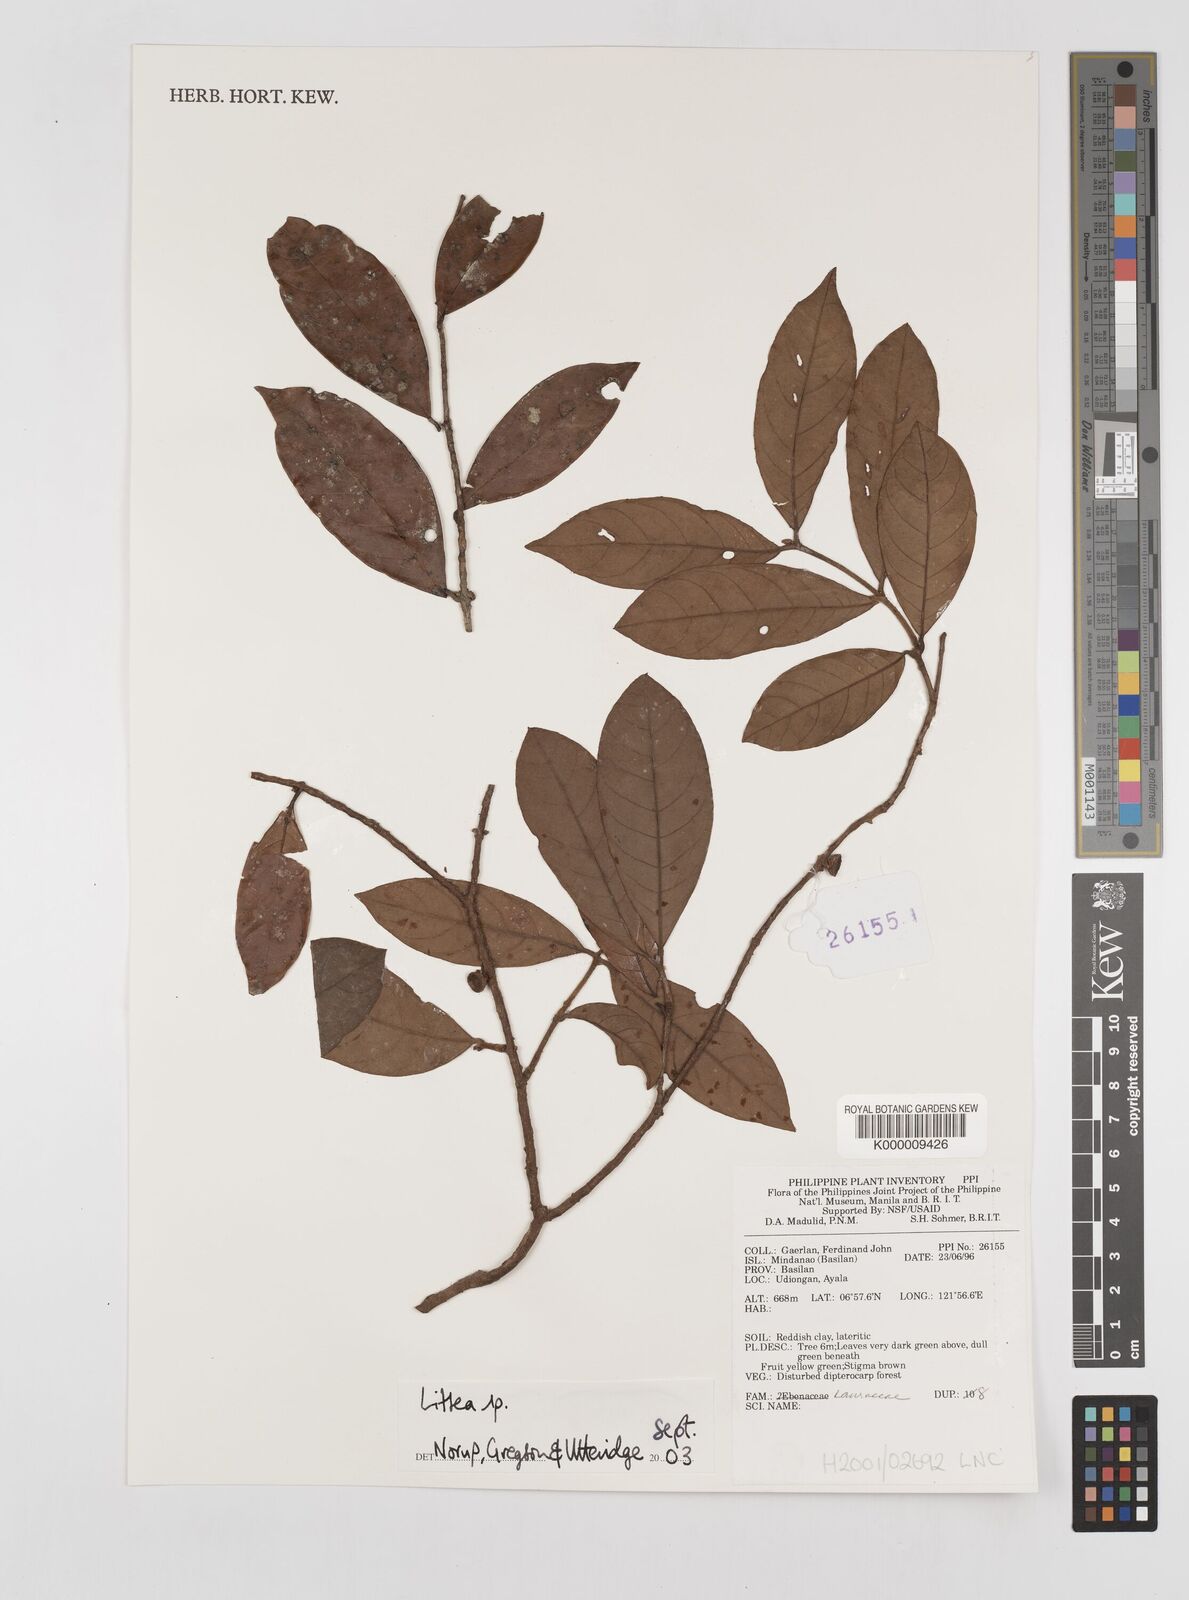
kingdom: Plantae
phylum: Tracheophyta
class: Magnoliopsida
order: Laurales
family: Lauraceae
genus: Litsea
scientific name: Litsea
